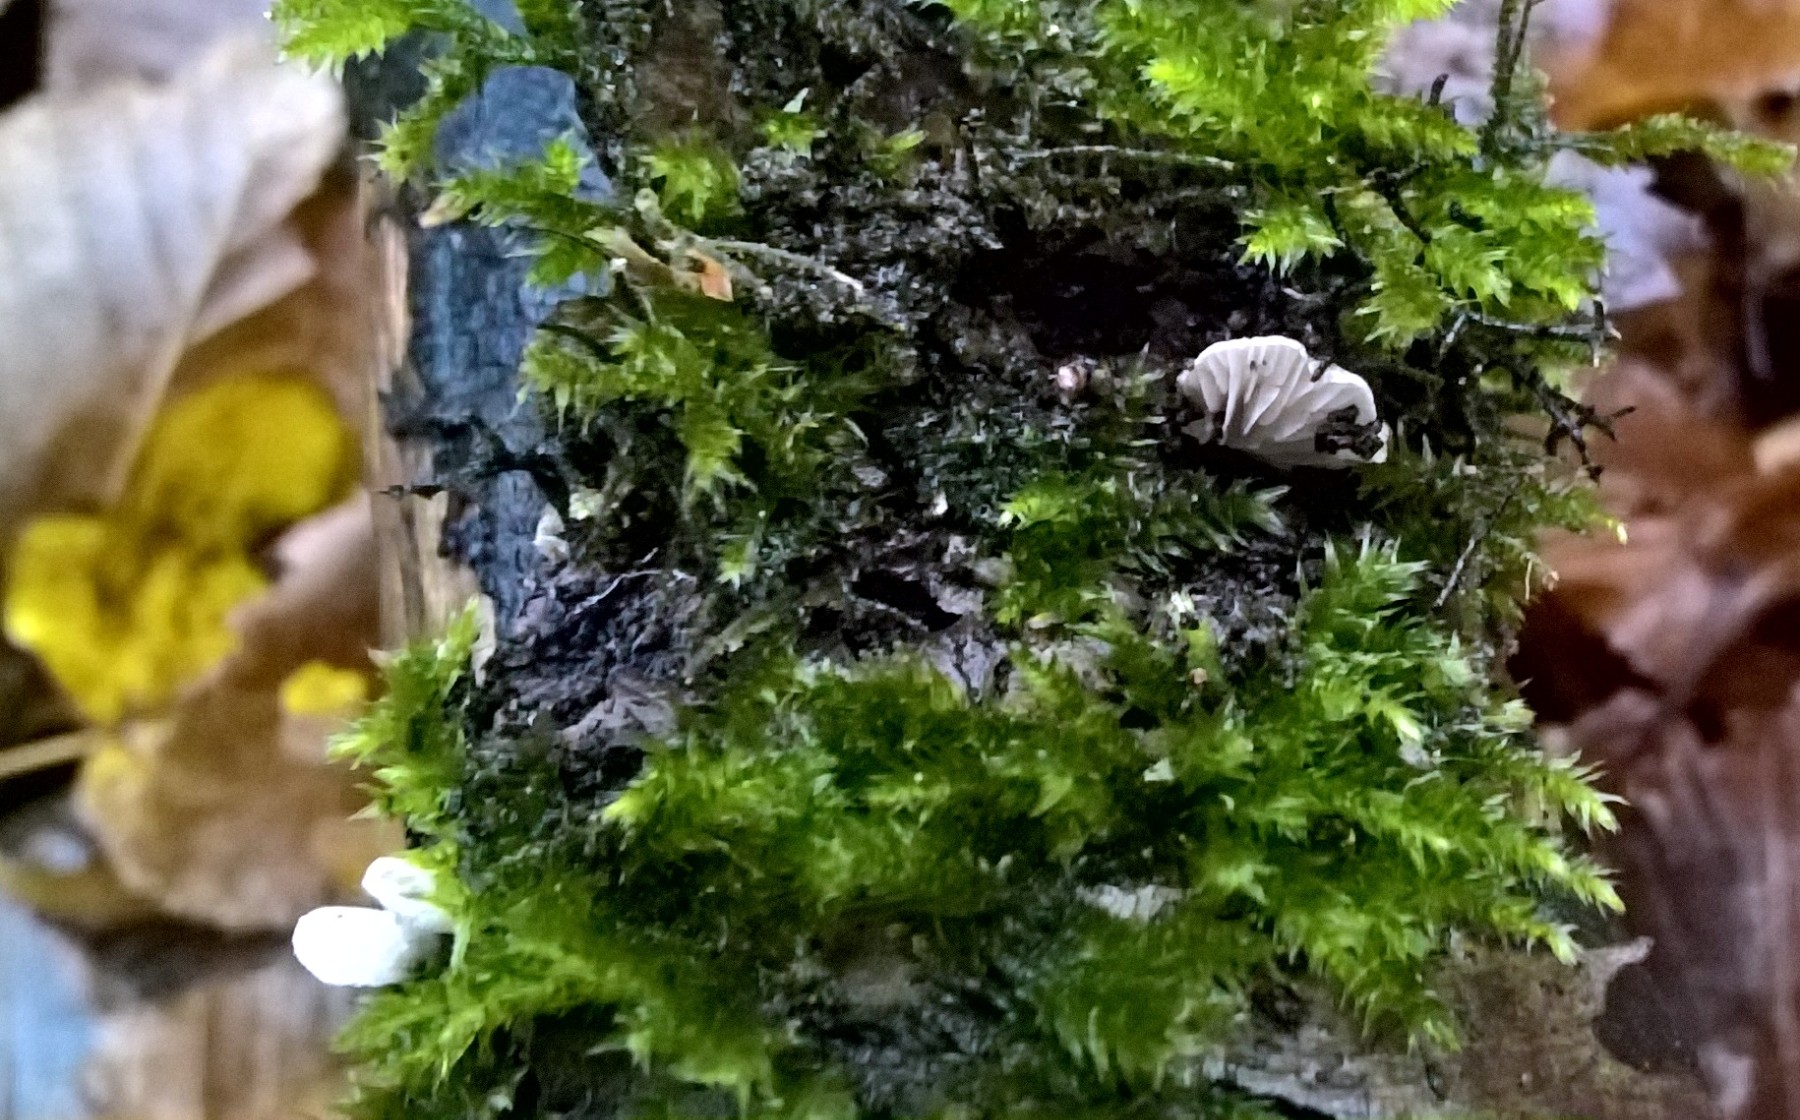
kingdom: Fungi
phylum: Basidiomycota
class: Agaricomycetes
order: Agaricales
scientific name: Agaricales
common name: champignonordenen
